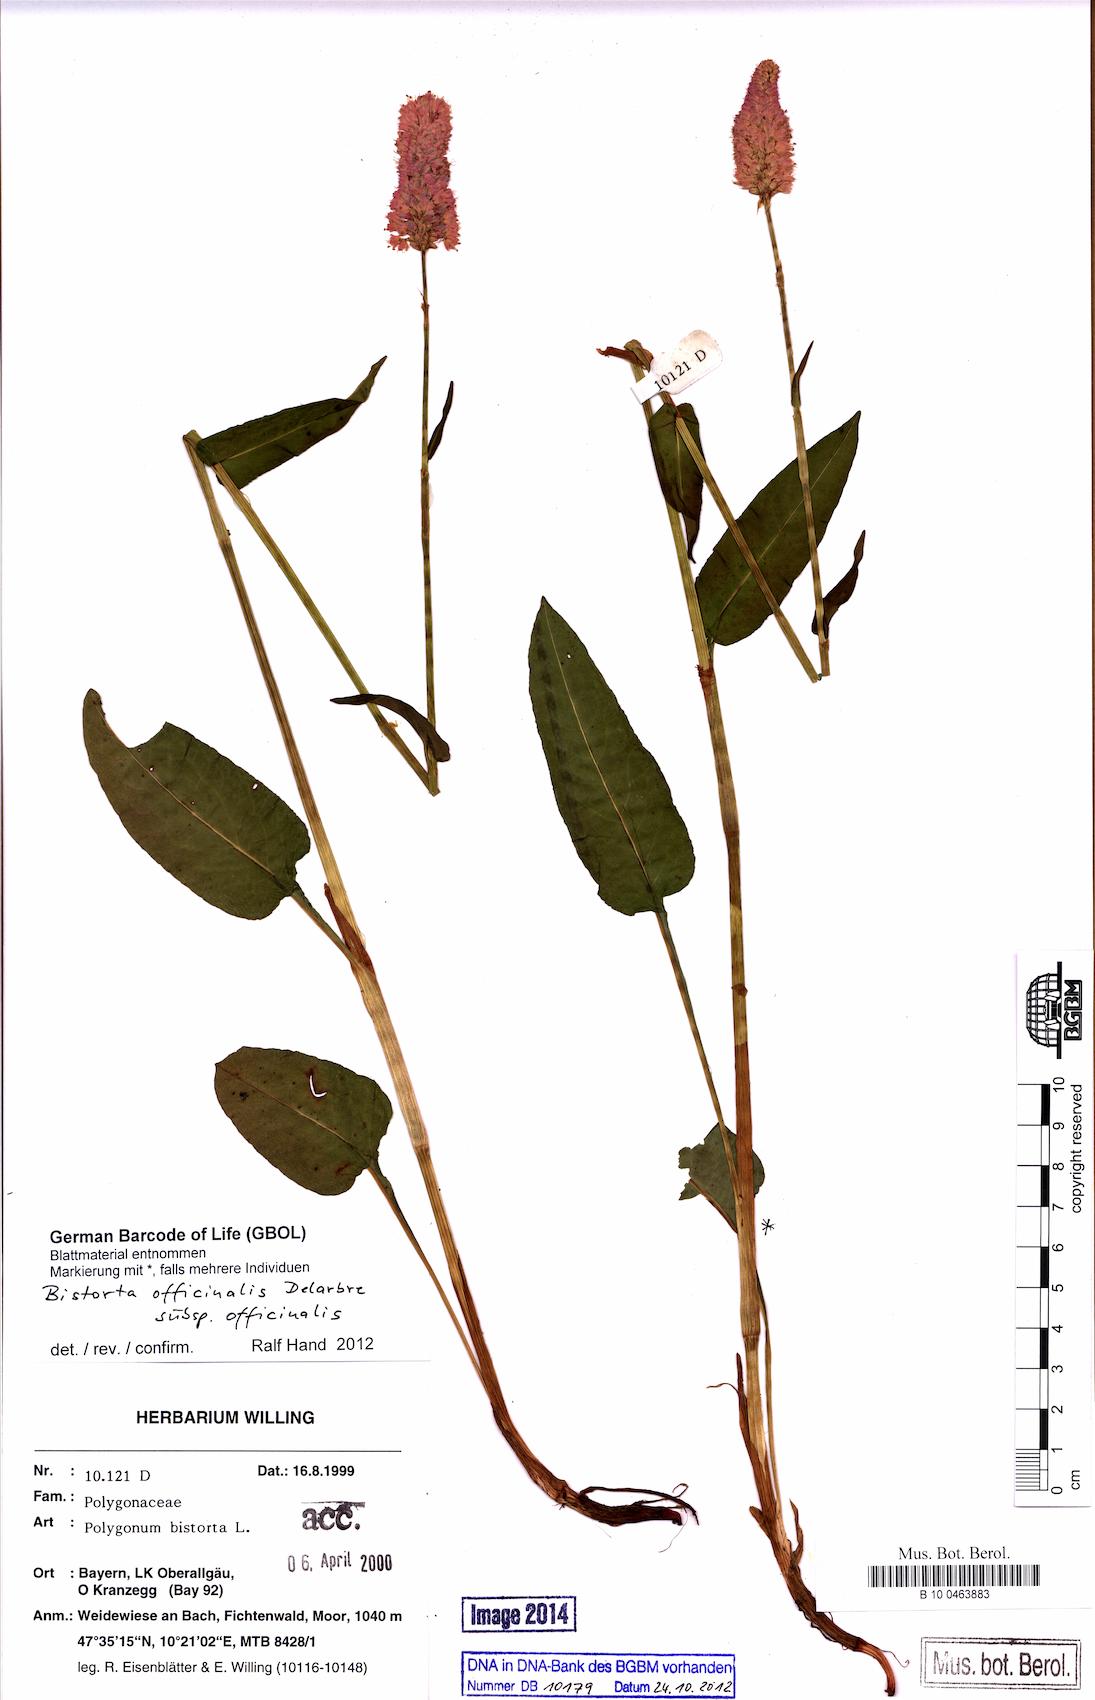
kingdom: Plantae
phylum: Tracheophyta
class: Magnoliopsida
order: Caryophyllales
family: Polygonaceae
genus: Bistorta
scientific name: Bistorta officinalis
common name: Common bistort
